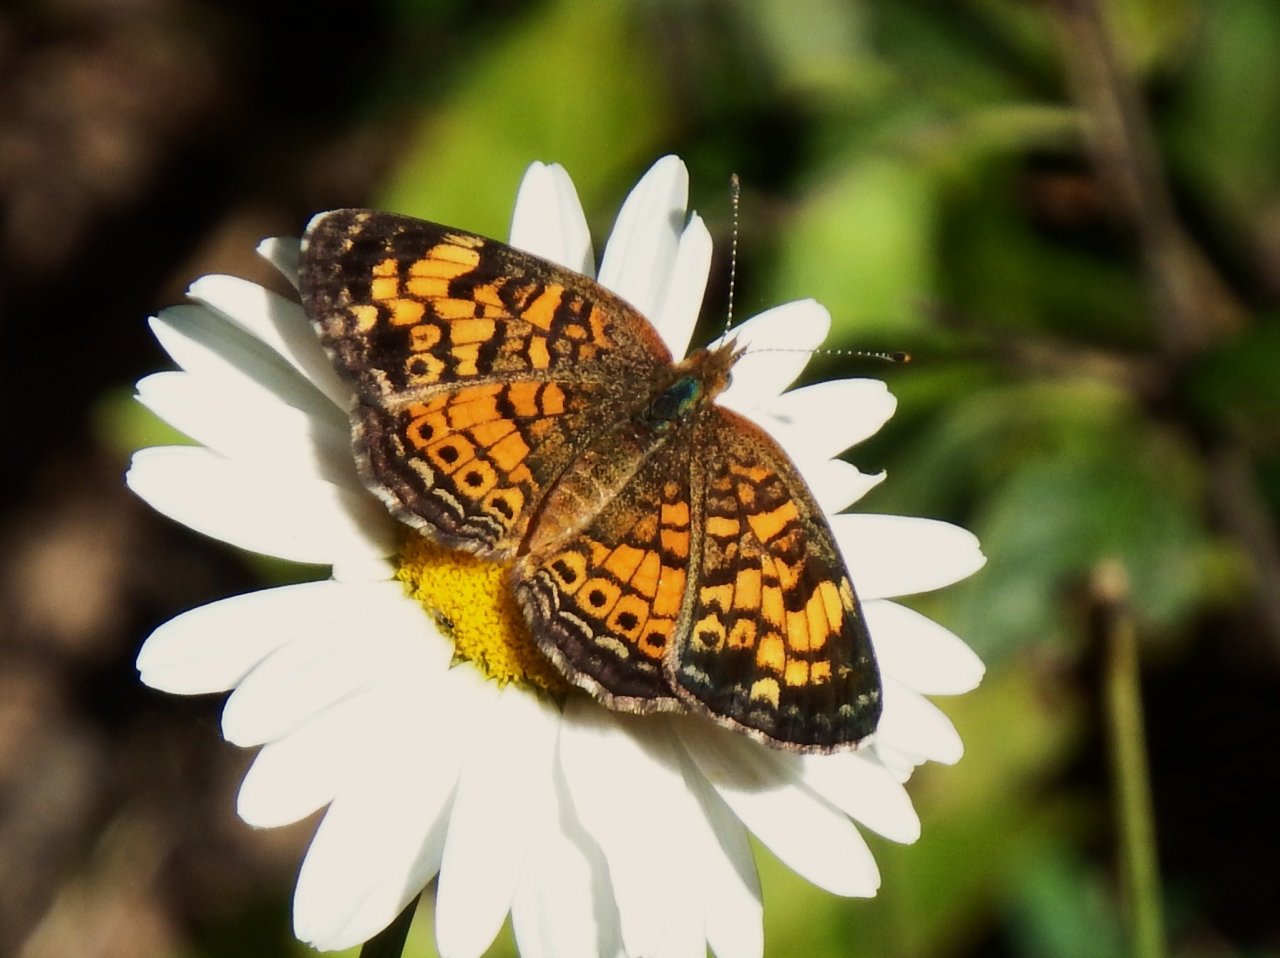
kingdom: Animalia
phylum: Arthropoda
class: Insecta
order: Lepidoptera
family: Nymphalidae
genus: Phyciodes
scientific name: Phyciodes tharos
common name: Pearl Crescent
